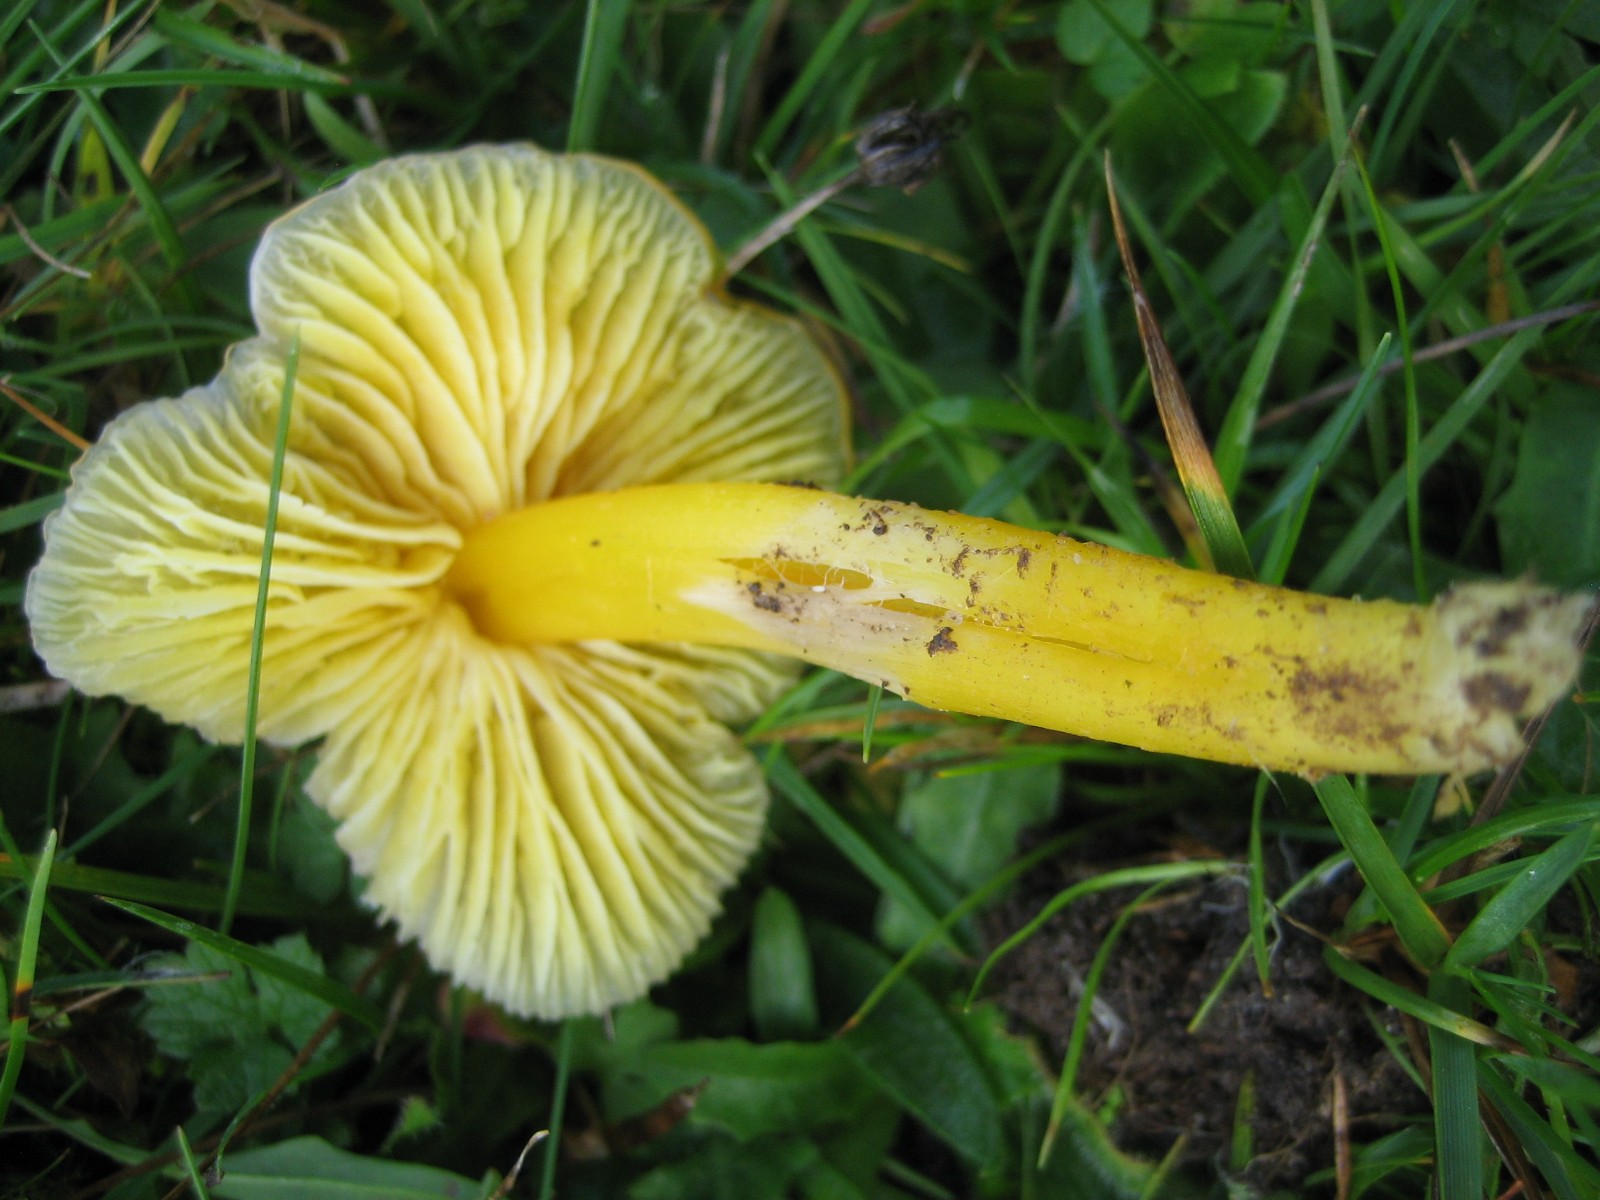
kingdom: Fungi
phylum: Basidiomycota
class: Agaricomycetes
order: Agaricales
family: Hygrophoraceae
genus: Hygrocybe
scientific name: Hygrocybe chlorophana
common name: gul vokshat
